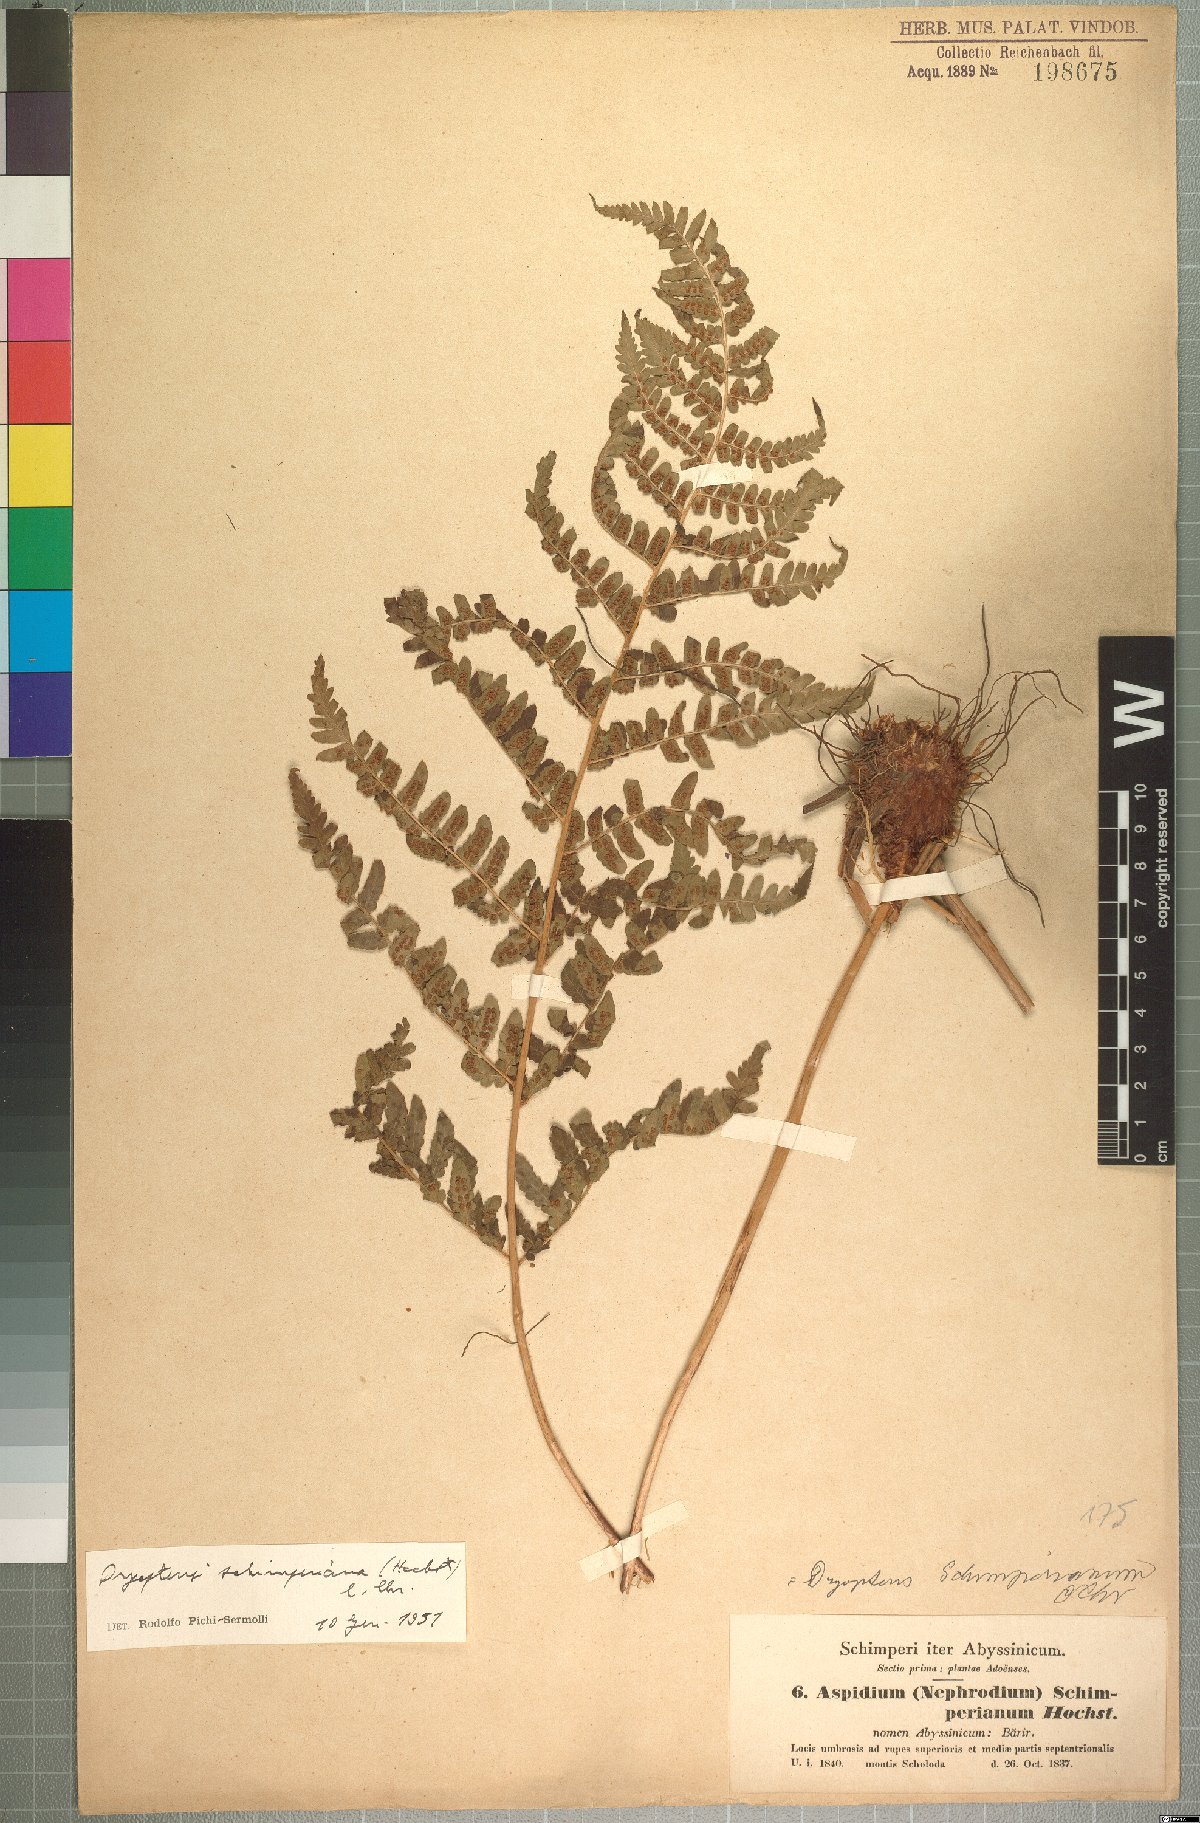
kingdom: Plantae
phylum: Tracheophyta
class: Polypodiopsida
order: Polypodiales
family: Dryopteridaceae
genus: Dryopteris
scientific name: Dryopteris schimperiana
